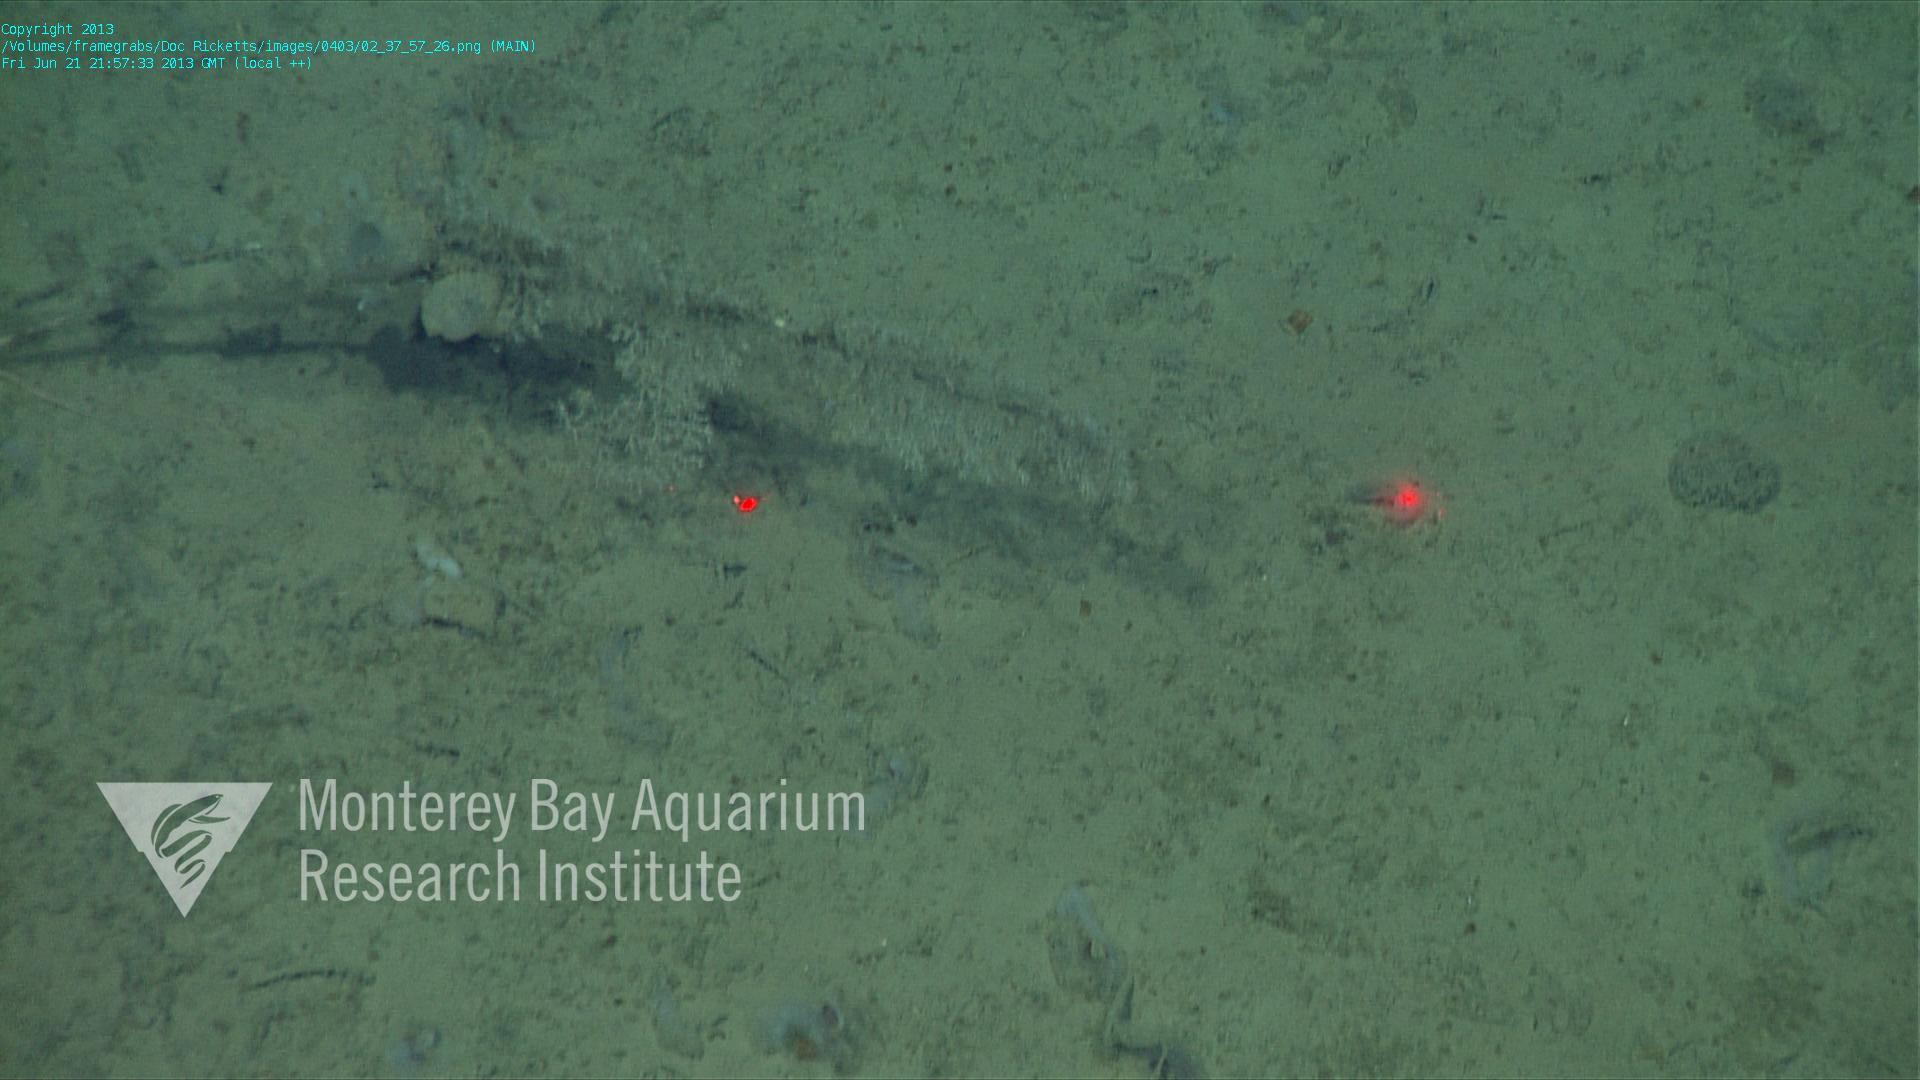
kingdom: Animalia
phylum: Porifera
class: Hexactinellida
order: Lyssacinosida
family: Rossellidae
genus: Bathydorus
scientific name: Bathydorus spinosus
